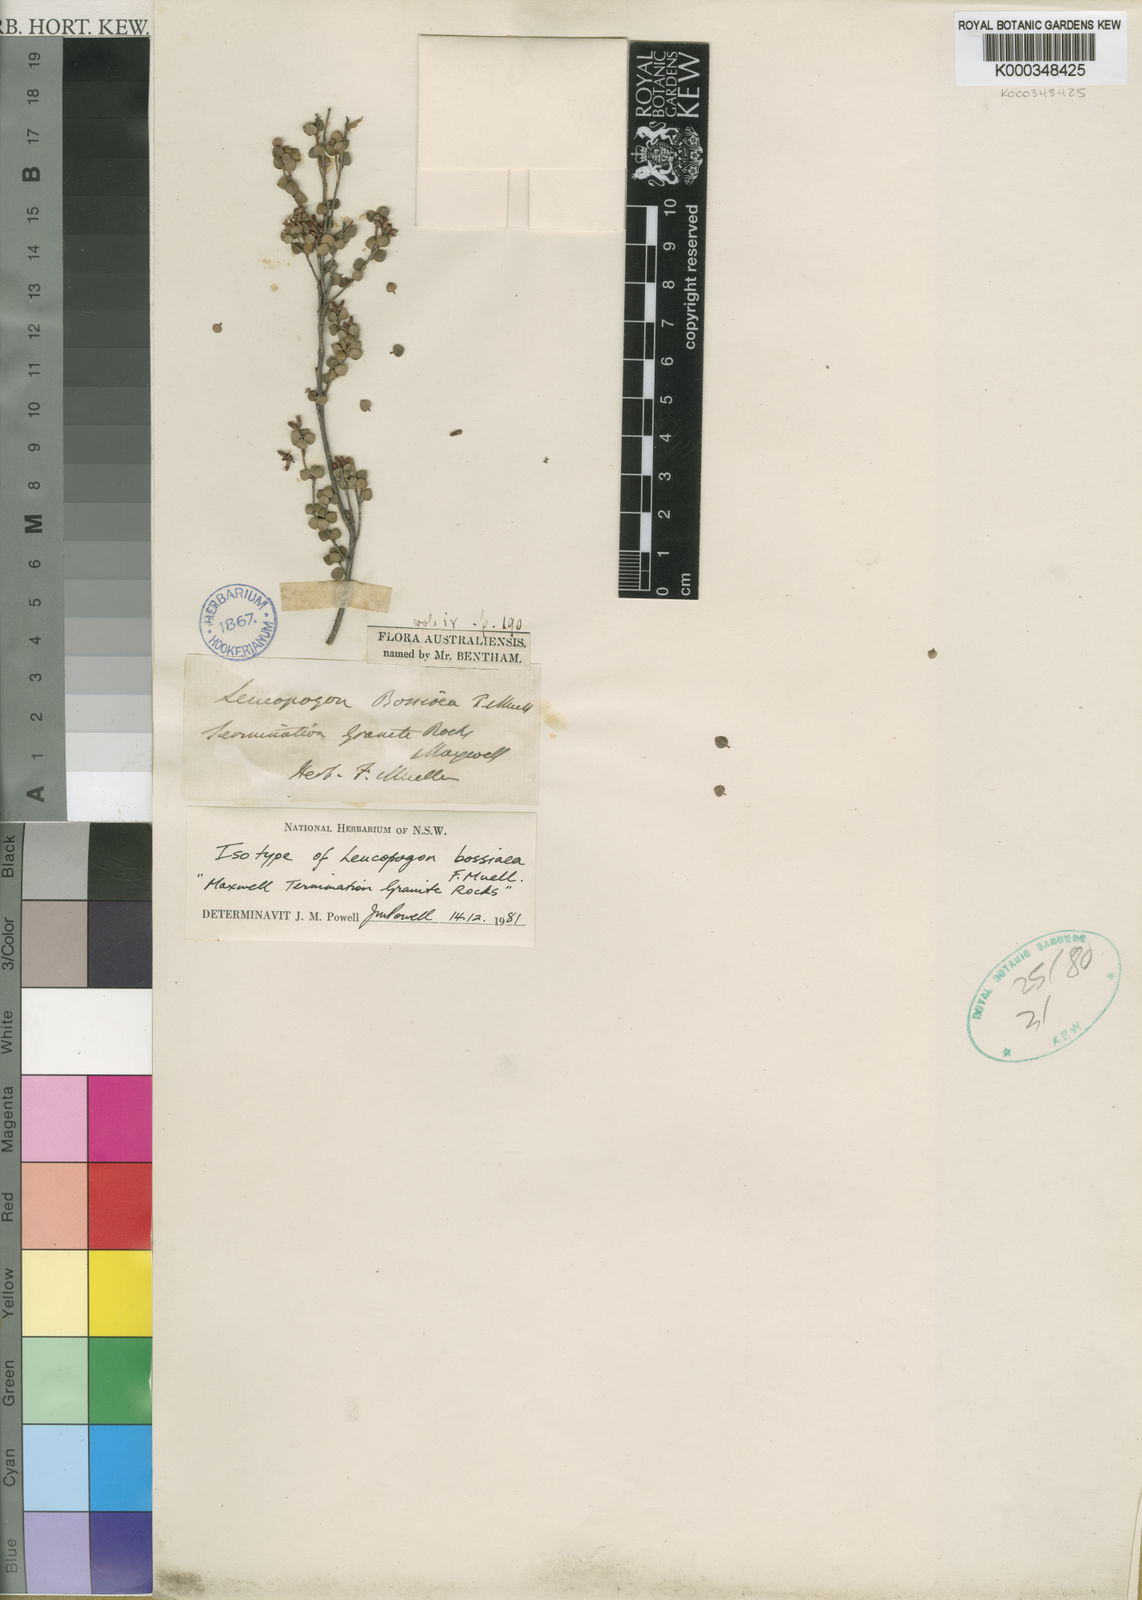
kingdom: Plantae
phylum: Tracheophyta
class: Magnoliopsida
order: Ericales
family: Ericaceae
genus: Leucopogon
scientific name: Leucopogon bossiaea
